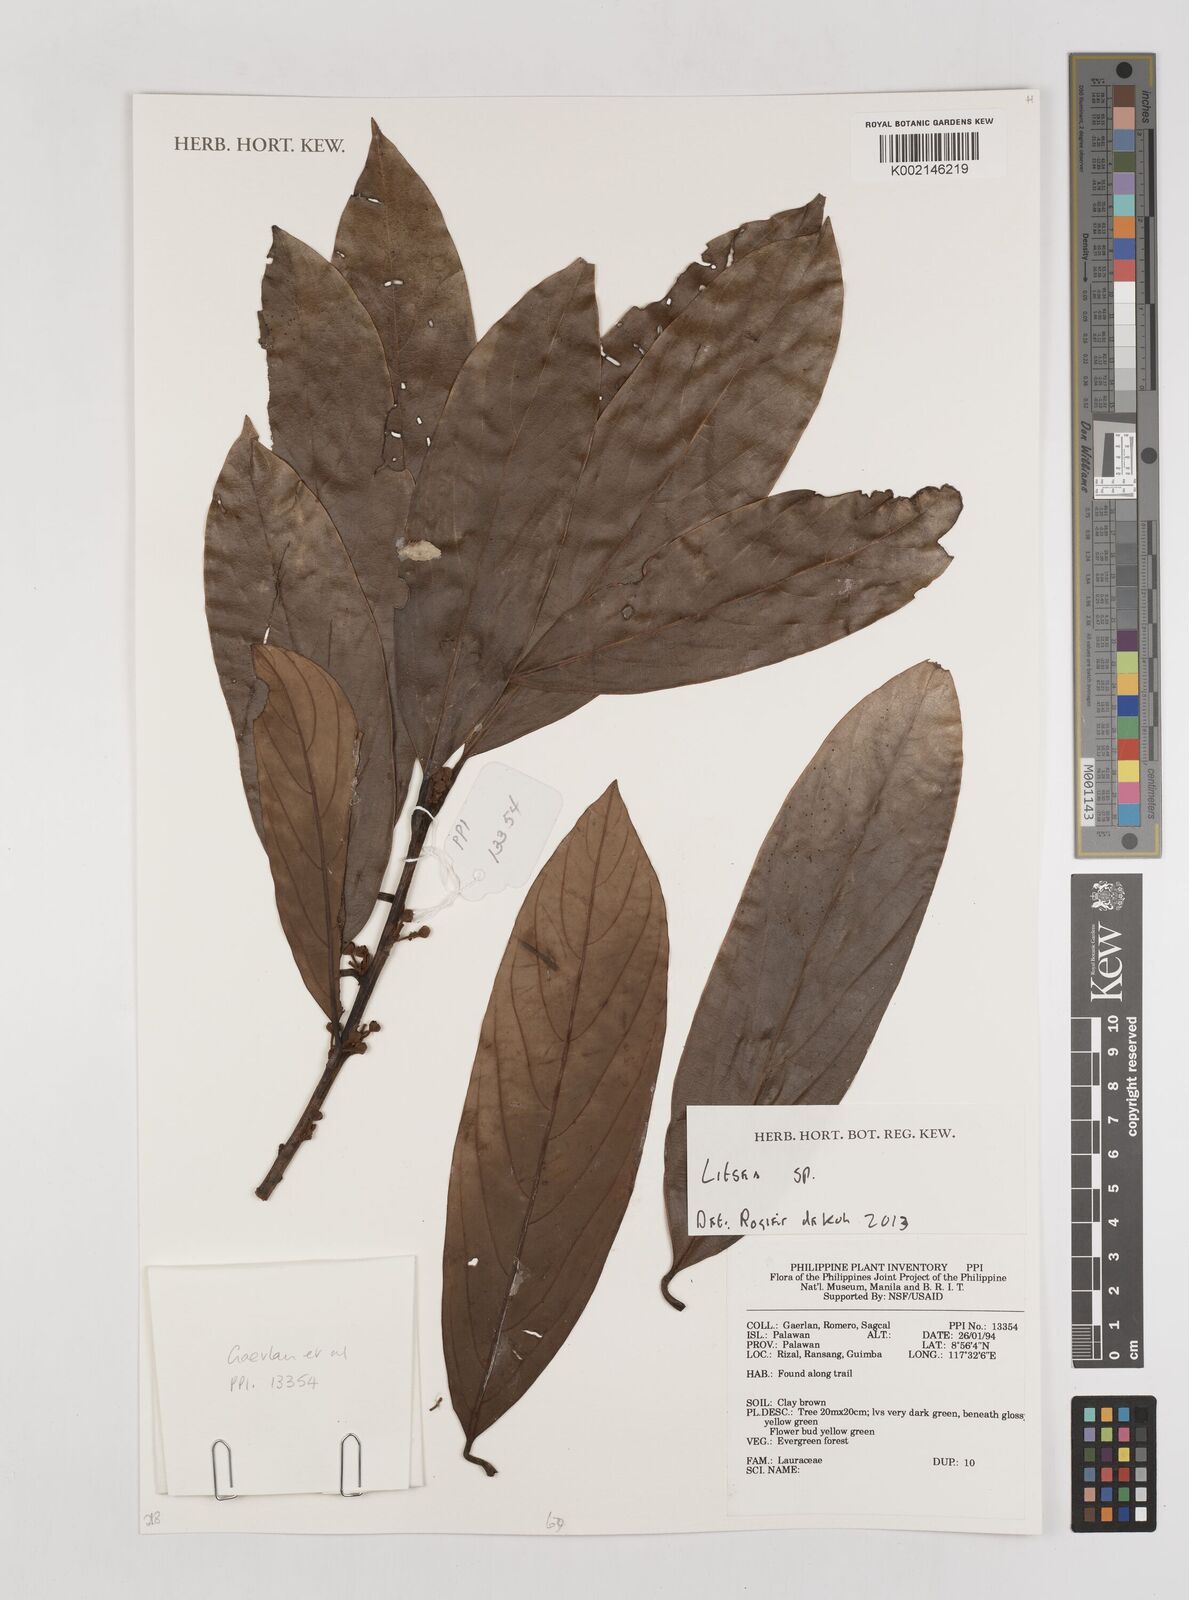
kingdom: Plantae
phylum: Tracheophyta
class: Magnoliopsida
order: Laurales
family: Lauraceae
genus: Litsea
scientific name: Litsea
